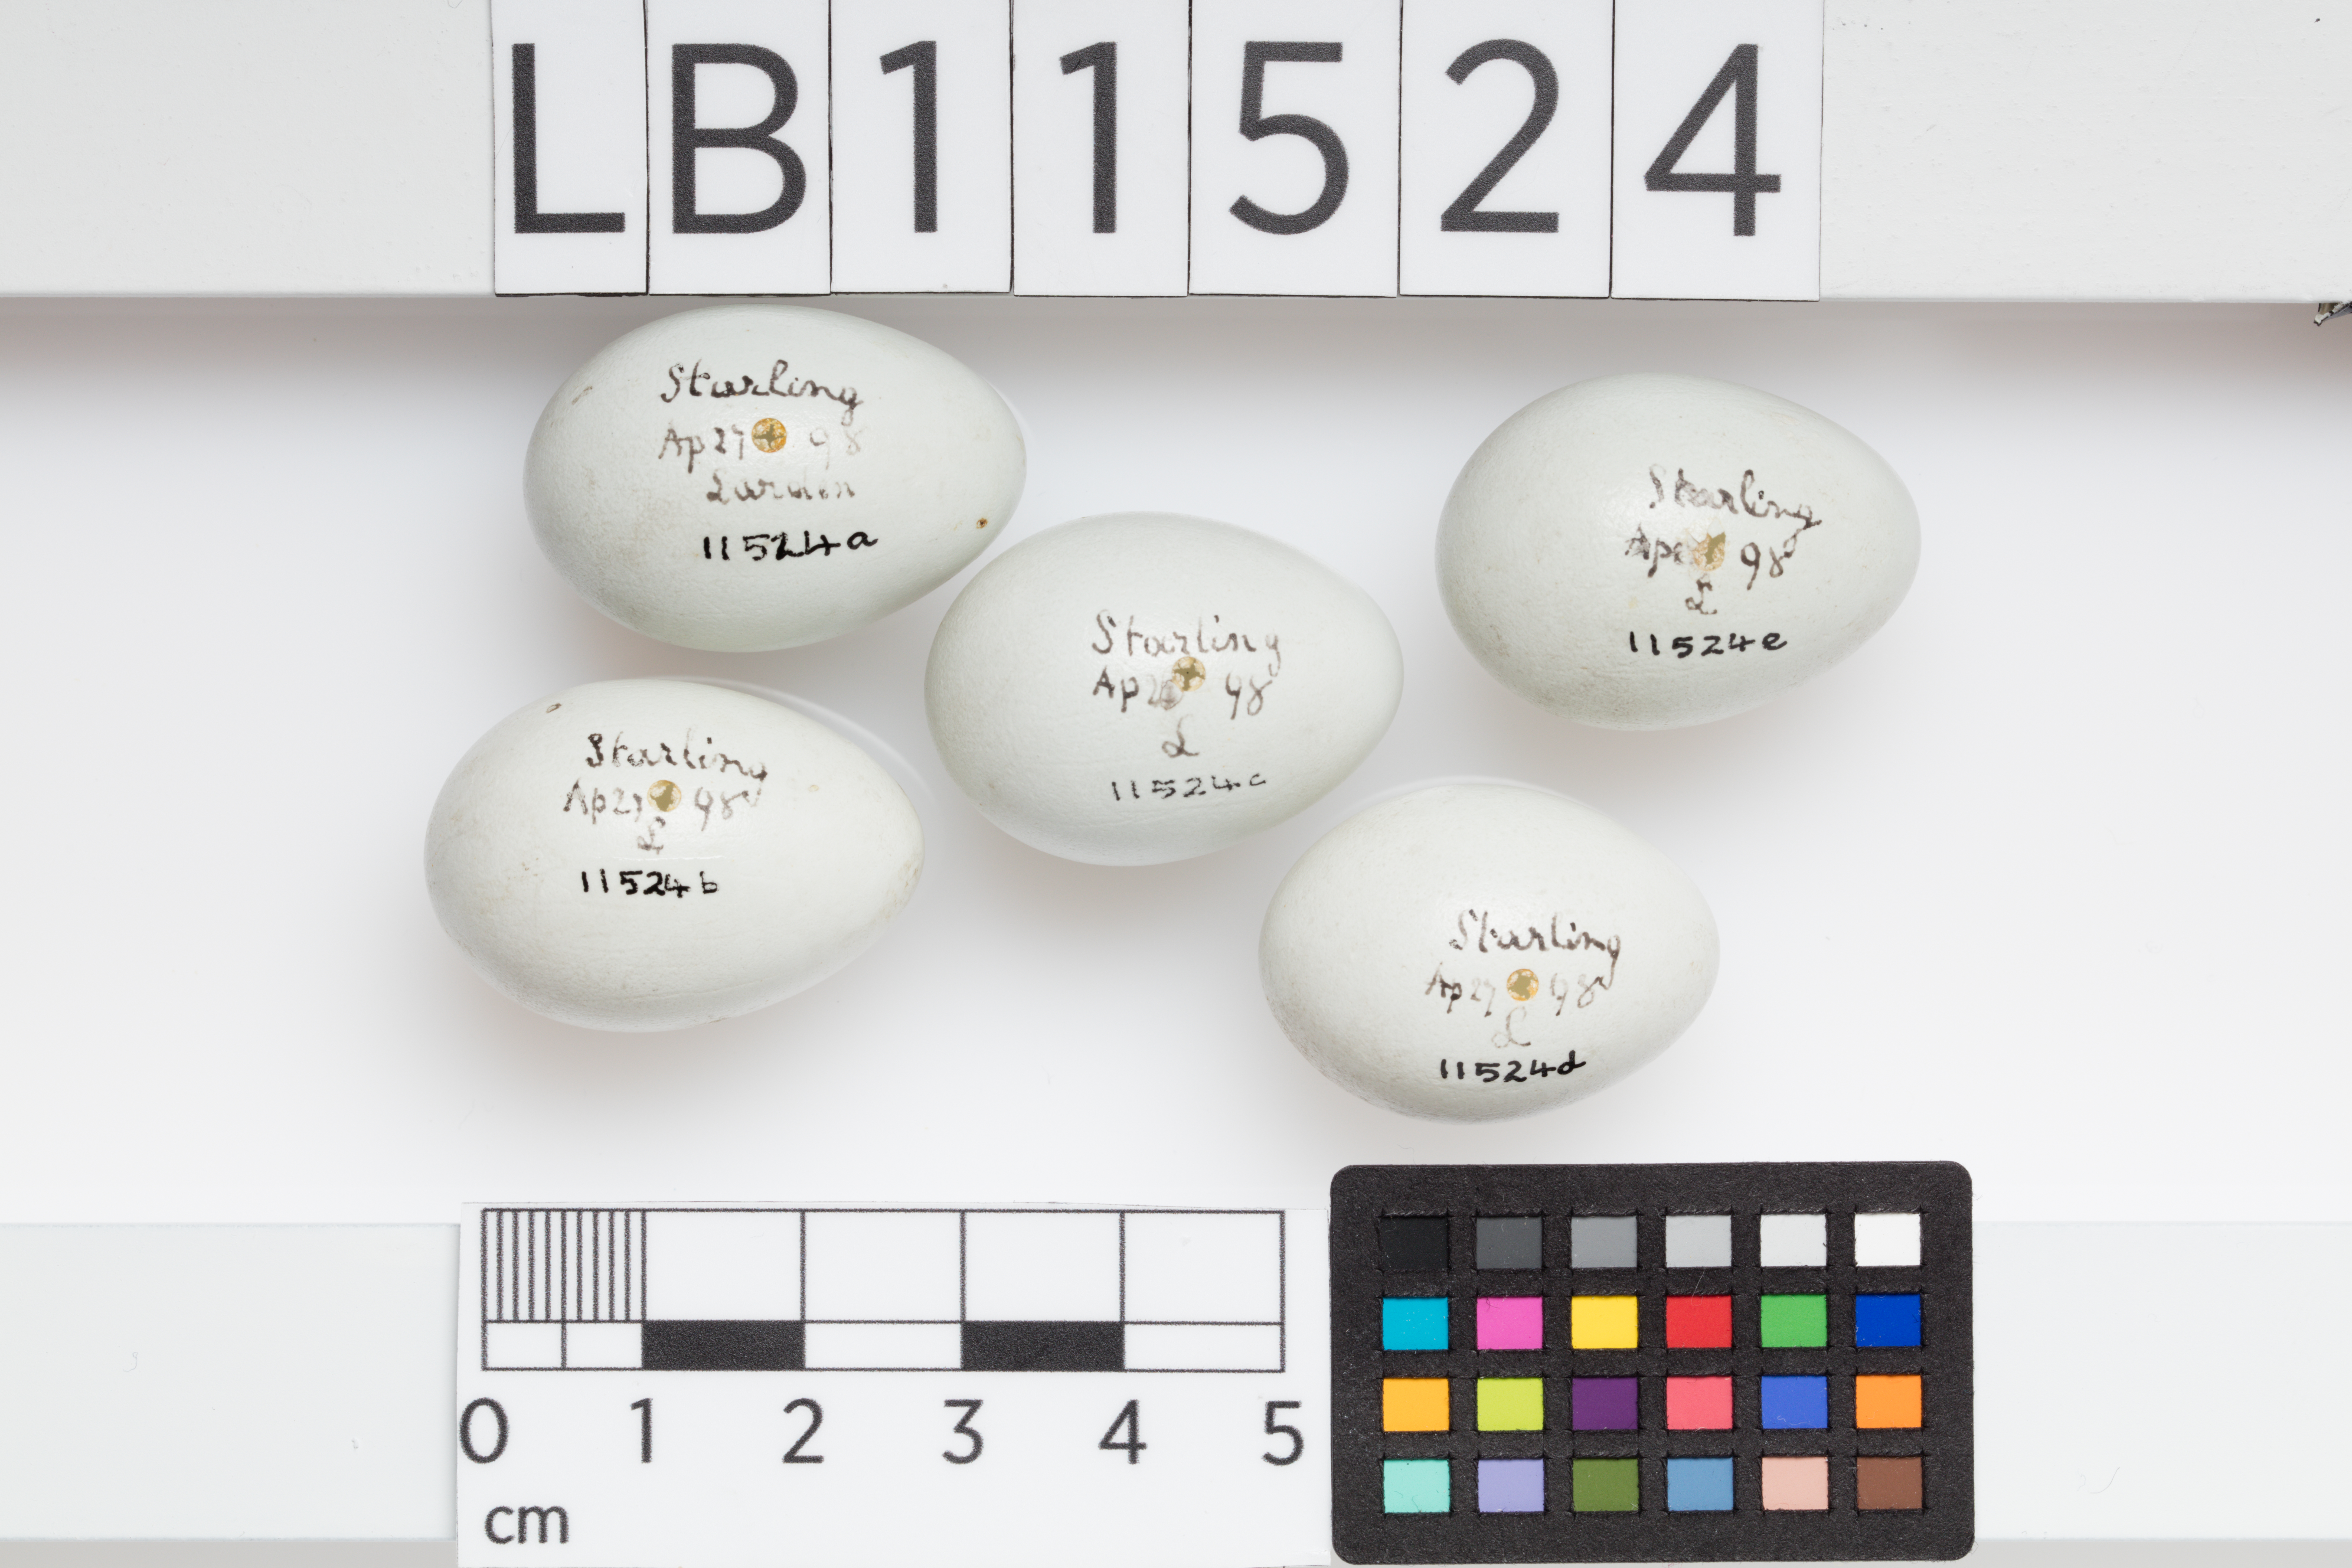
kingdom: Animalia
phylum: Chordata
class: Aves
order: Passeriformes
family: Sturnidae
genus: Sturnus
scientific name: Sturnus vulgaris
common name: Common starling
